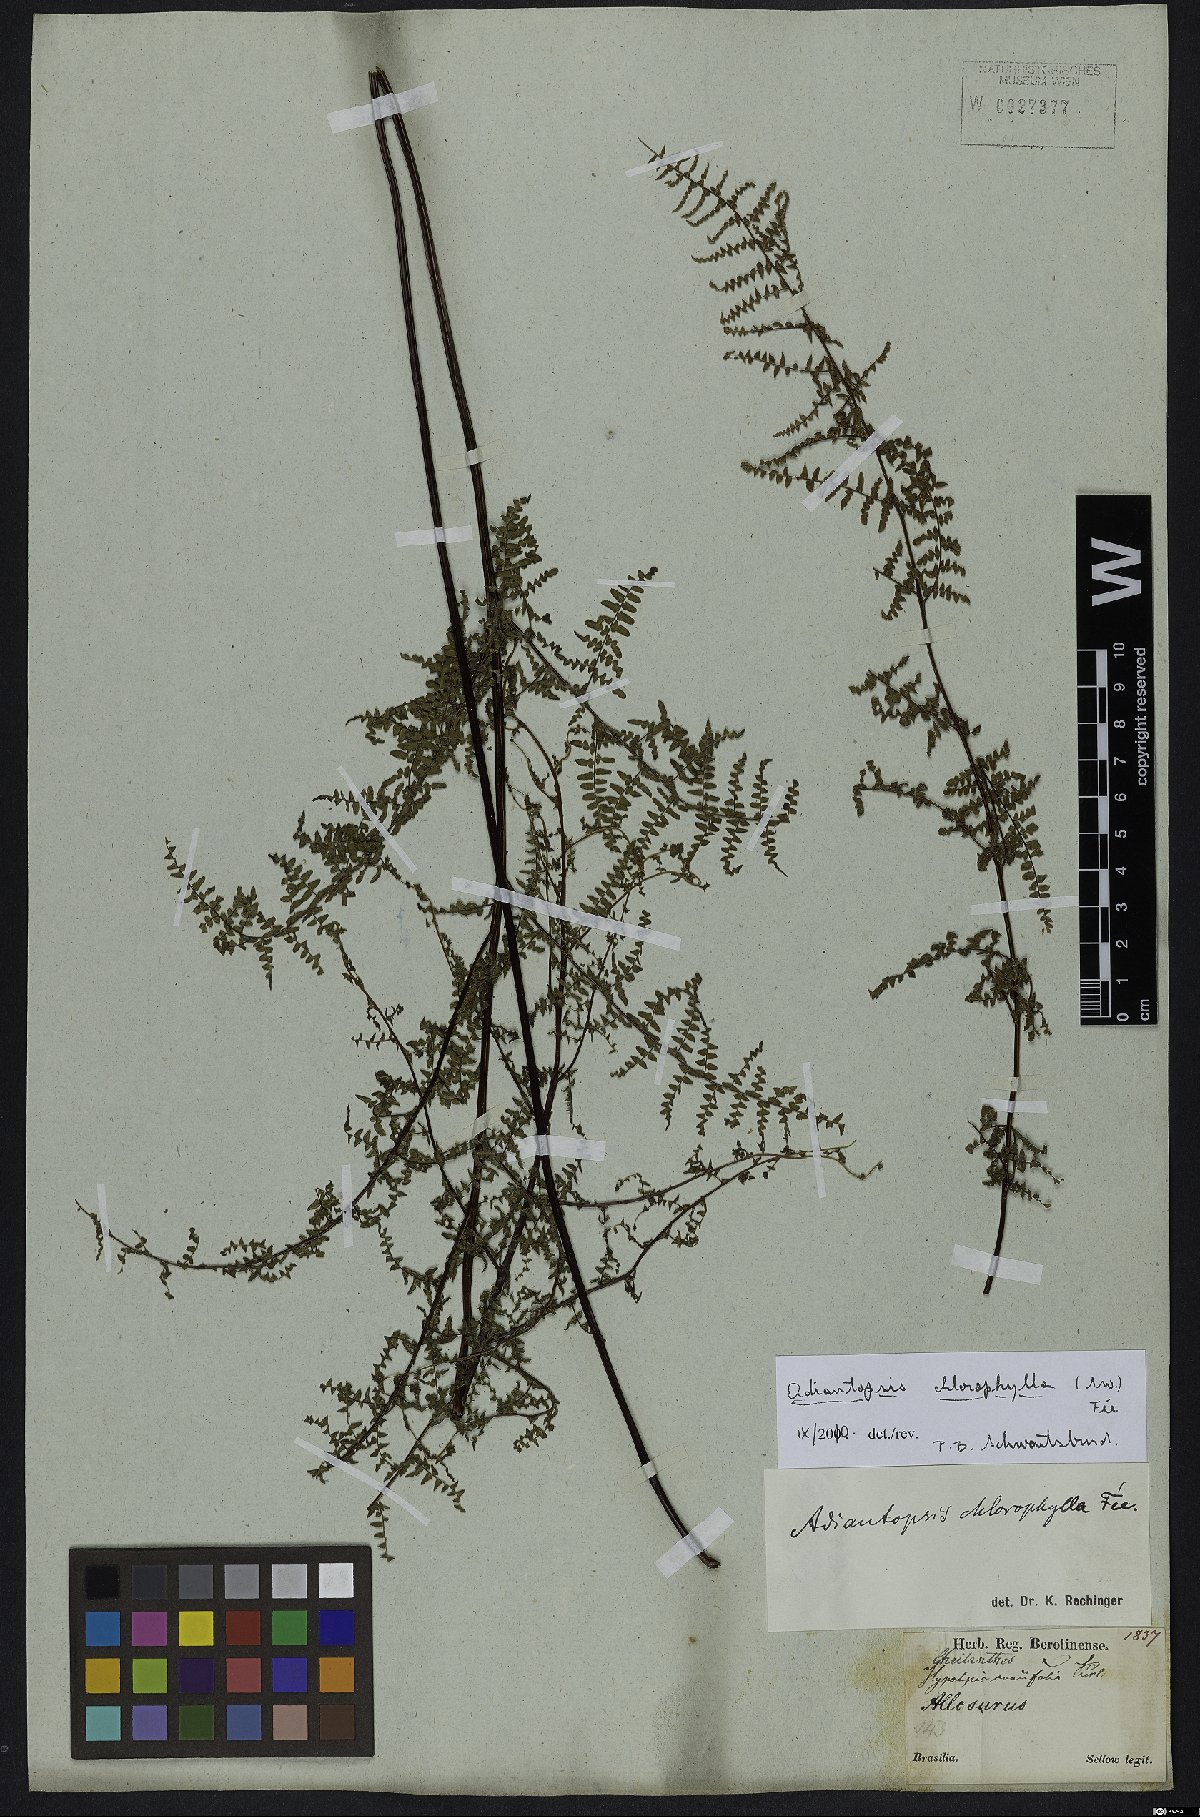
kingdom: Plantae
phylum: Tracheophyta
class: Polypodiopsida
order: Polypodiales
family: Pteridaceae
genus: Adiantopsis
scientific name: Adiantopsis chlorophylla
